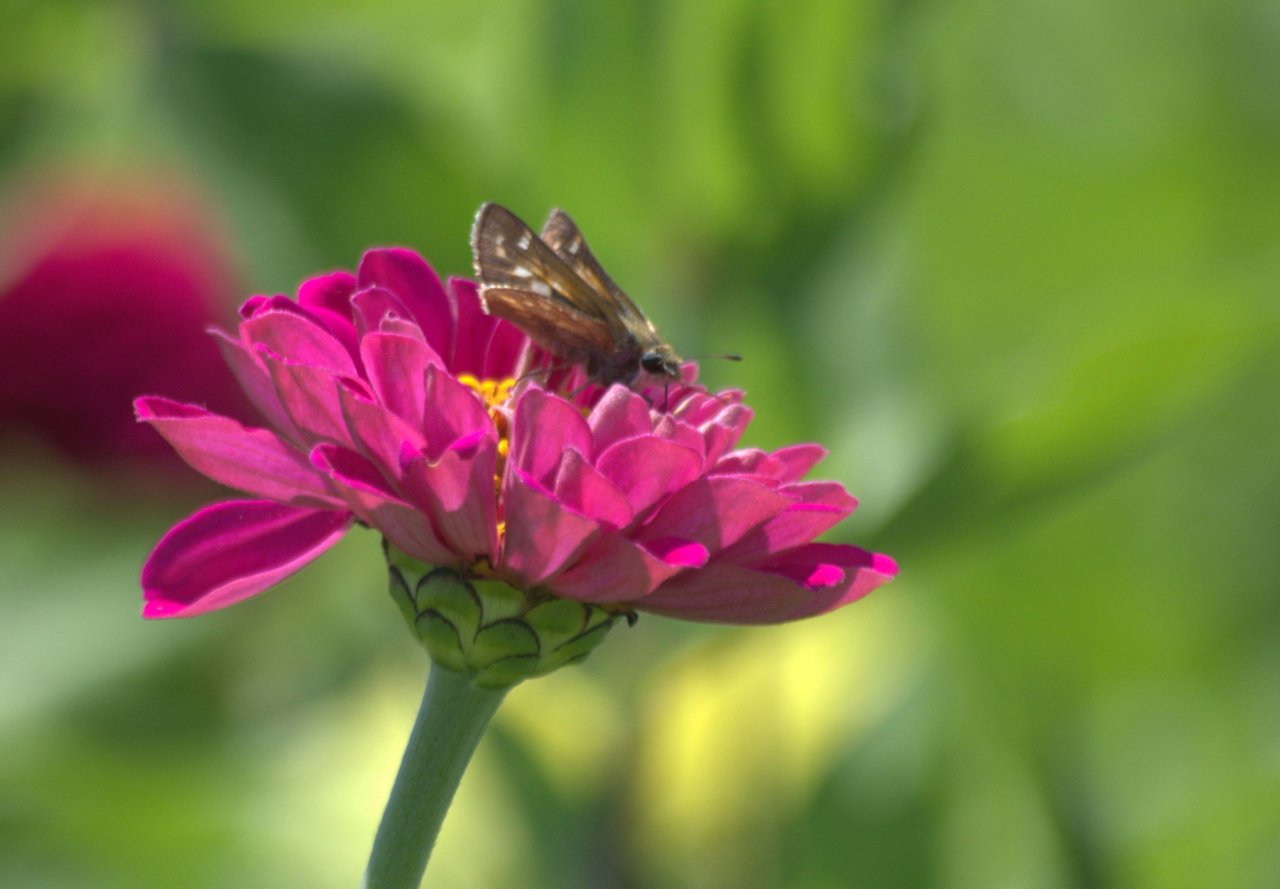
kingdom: Animalia
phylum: Arthropoda
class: Insecta
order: Lepidoptera
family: Hesperiidae
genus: Atalopedes
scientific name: Atalopedes campestris
